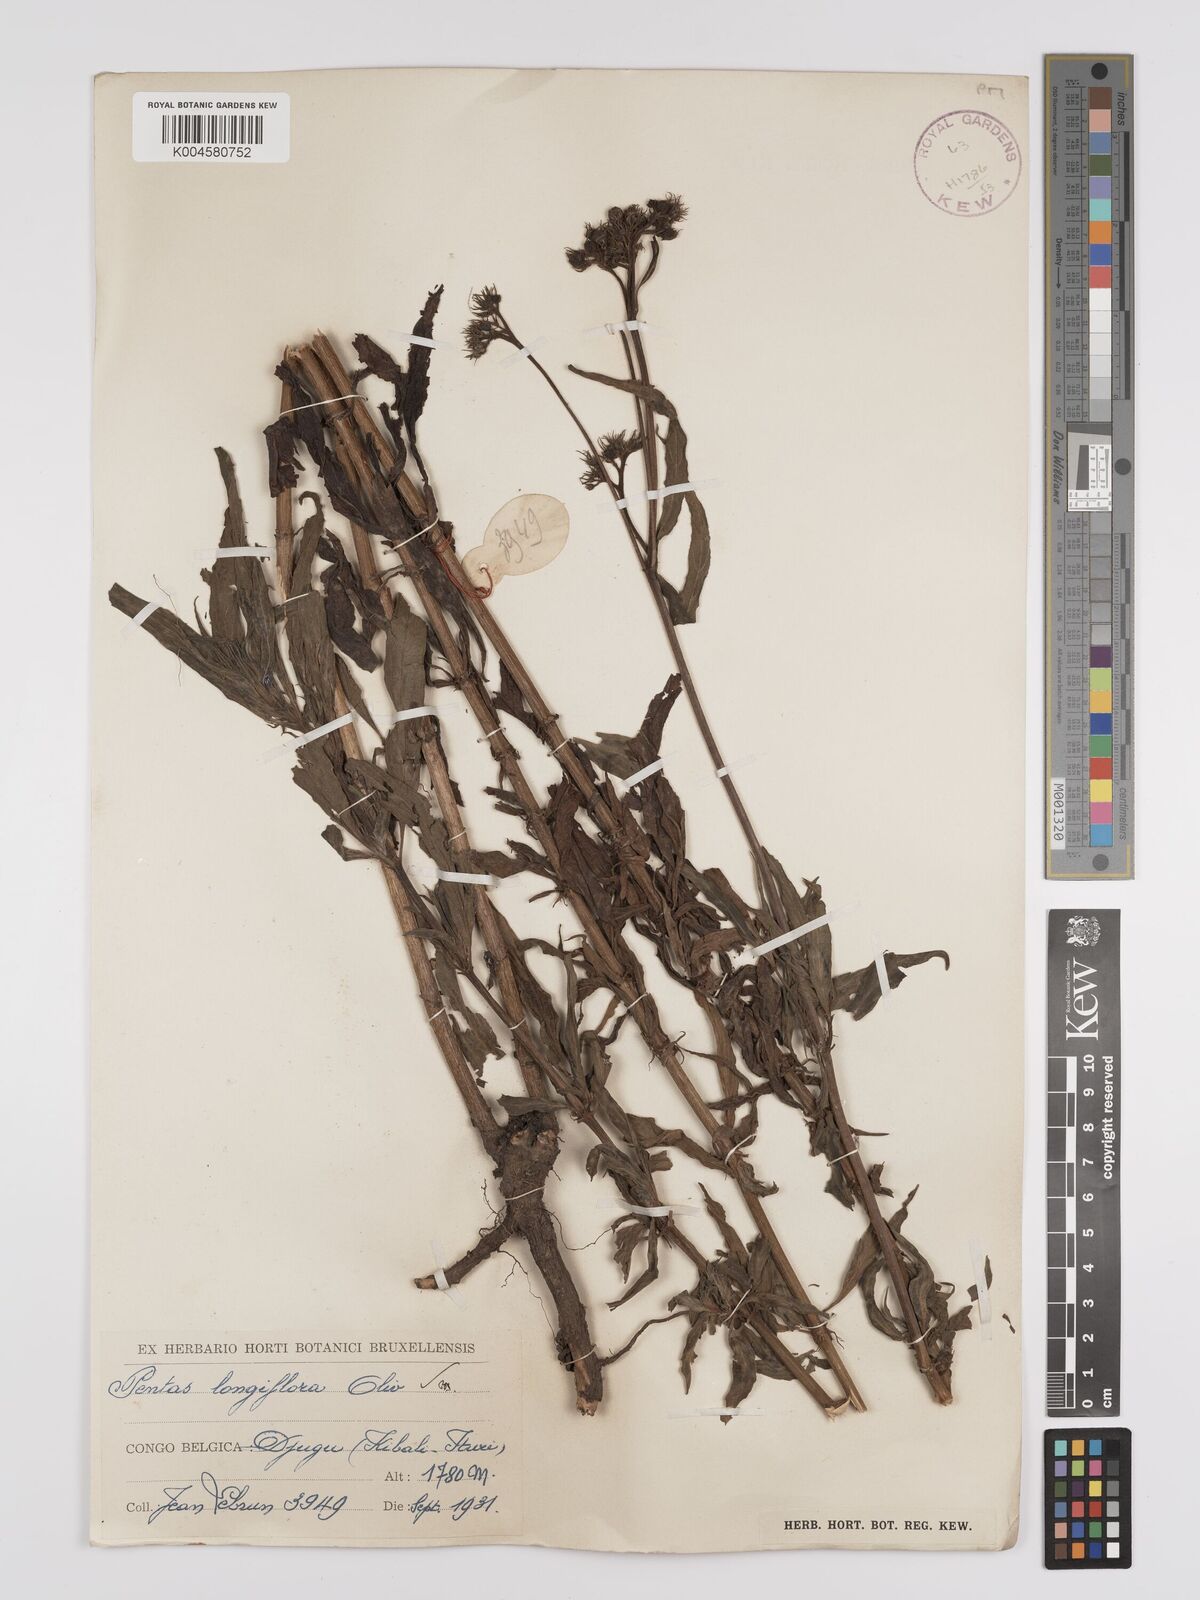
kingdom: Plantae
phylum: Tracheophyta
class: Magnoliopsida
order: Gentianales
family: Rubiaceae
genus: Dolichopentas
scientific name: Dolichopentas longiflora
